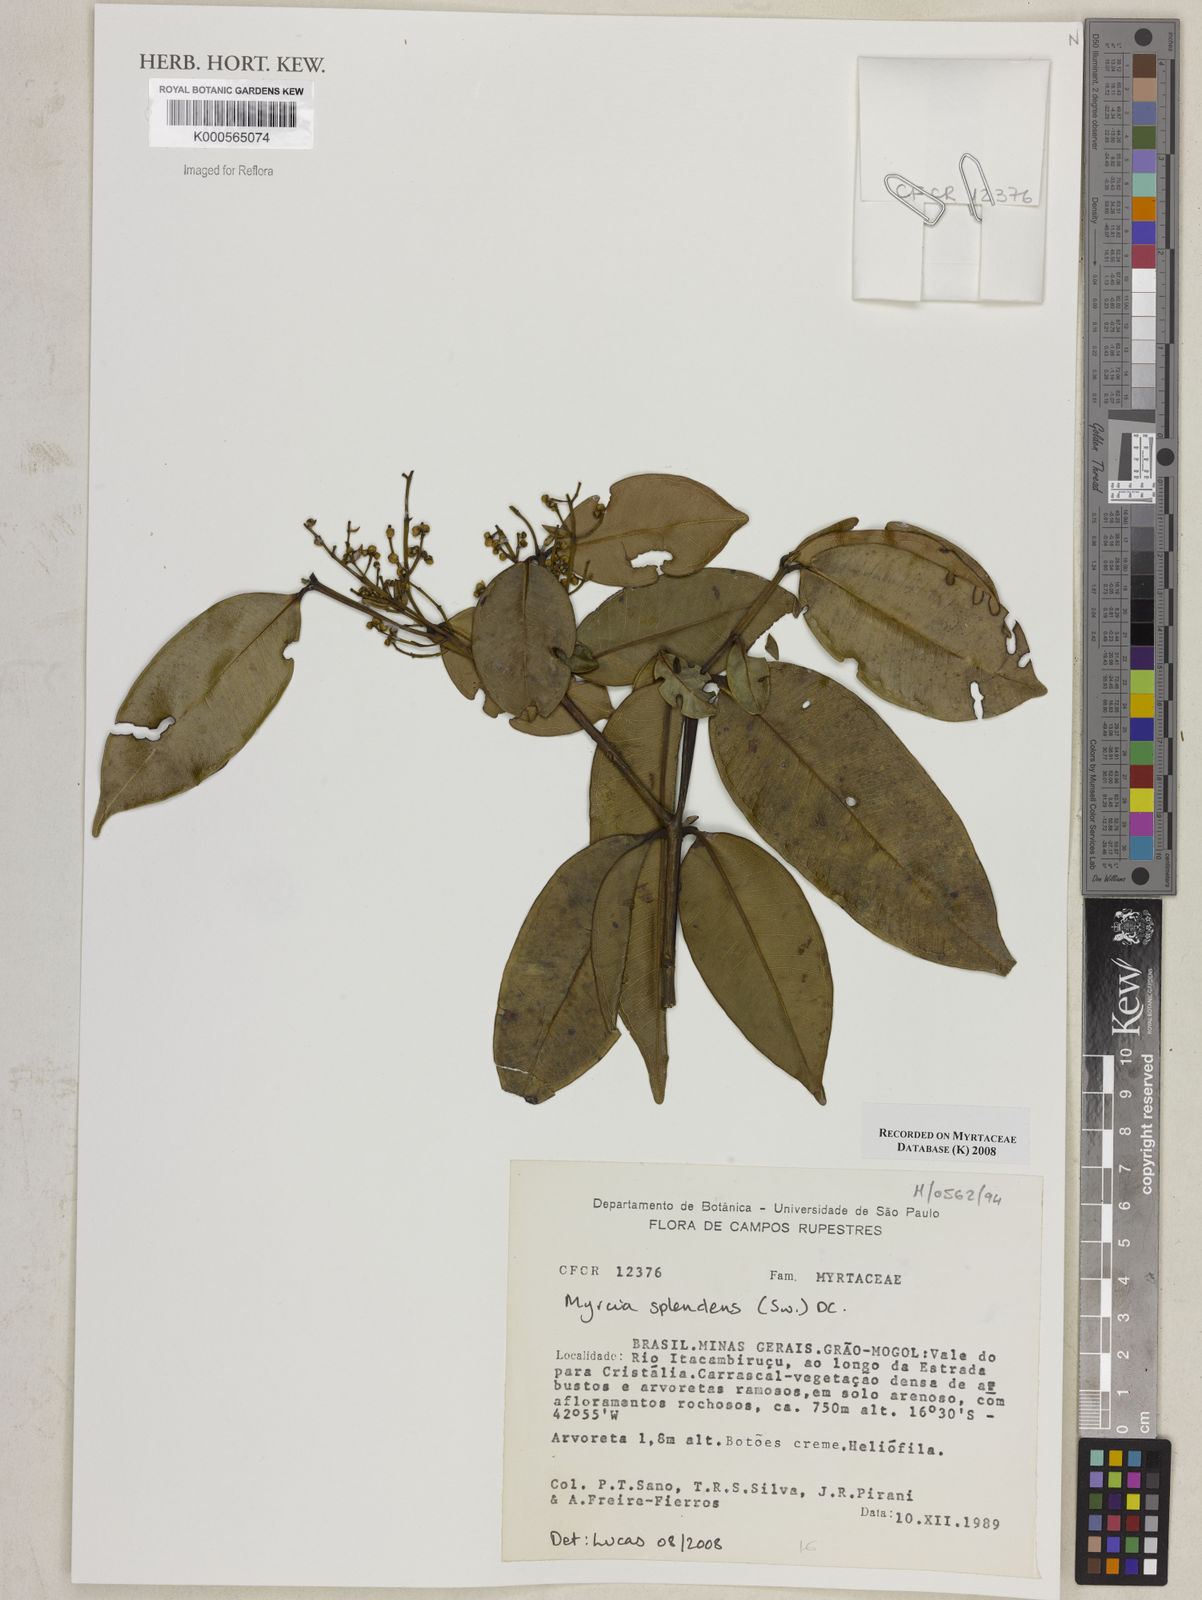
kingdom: Plantae
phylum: Tracheophyta
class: Magnoliopsida
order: Myrtales
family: Myrtaceae
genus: Myrcia
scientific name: Myrcia splendens
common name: Surinam cherry
